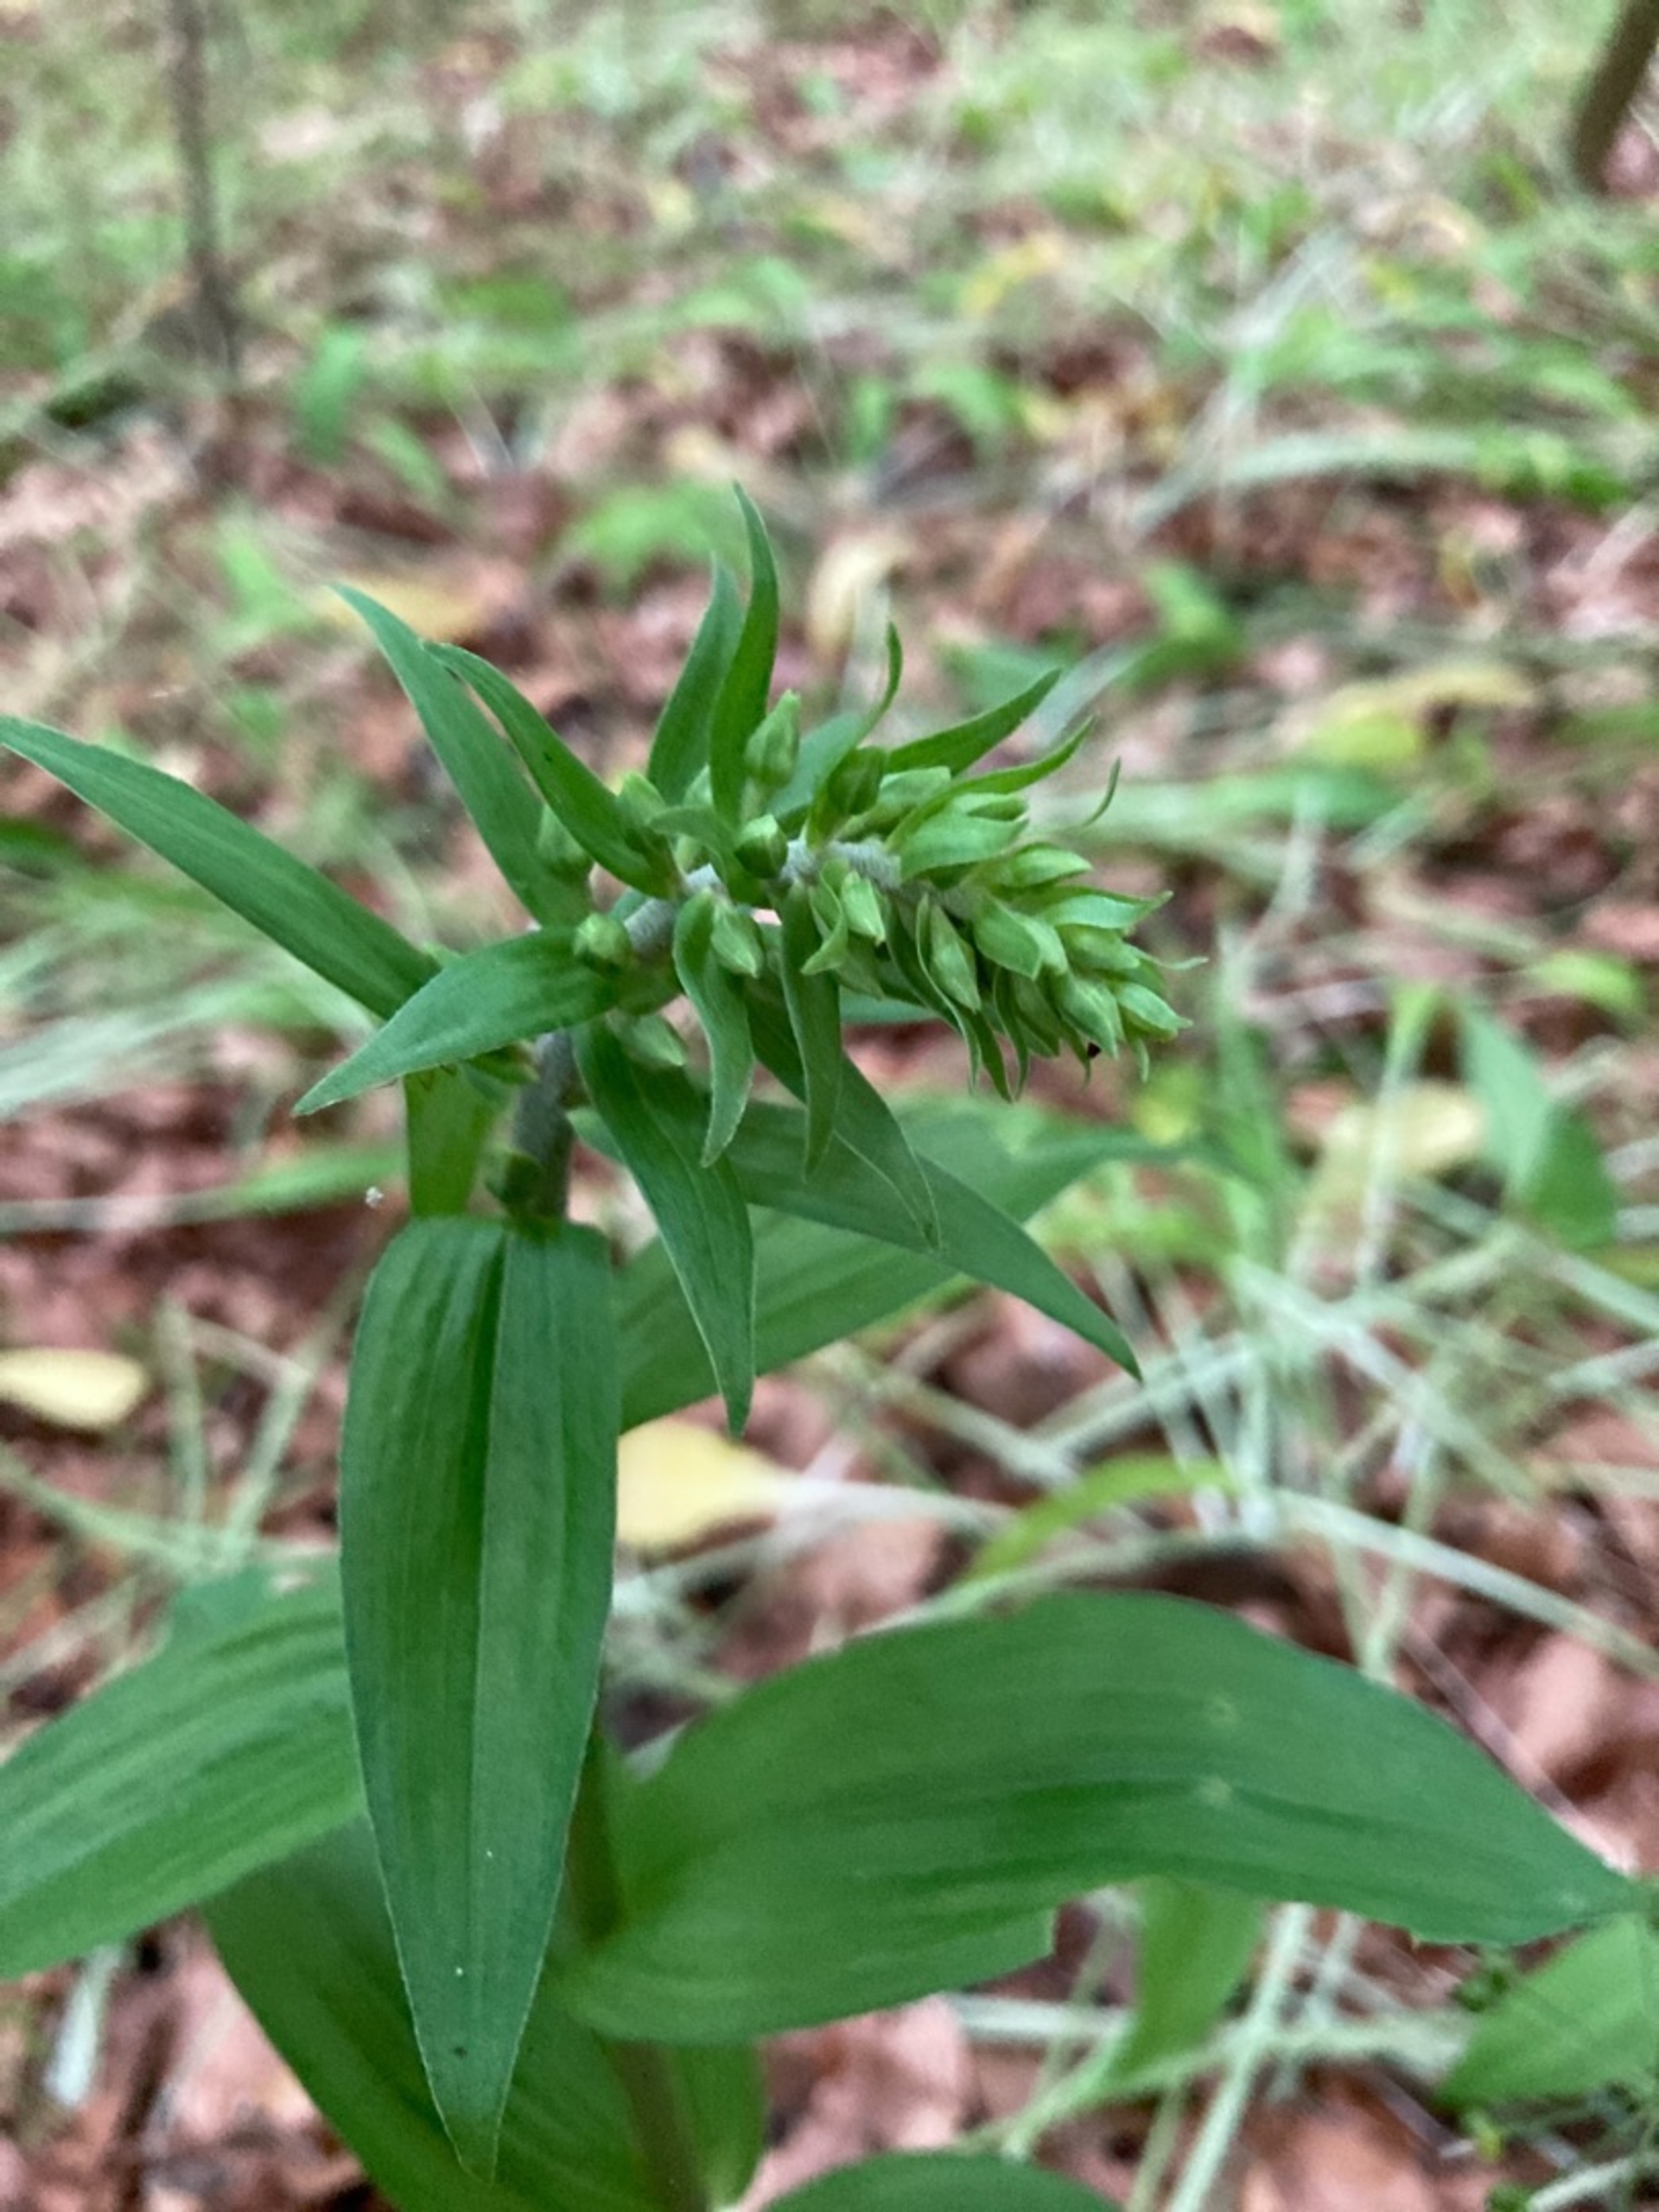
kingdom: Plantae
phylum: Tracheophyta
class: Liliopsida
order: Asparagales
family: Orchidaceae
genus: Epipactis
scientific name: Epipactis helleborine
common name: Skov-hullæbe
